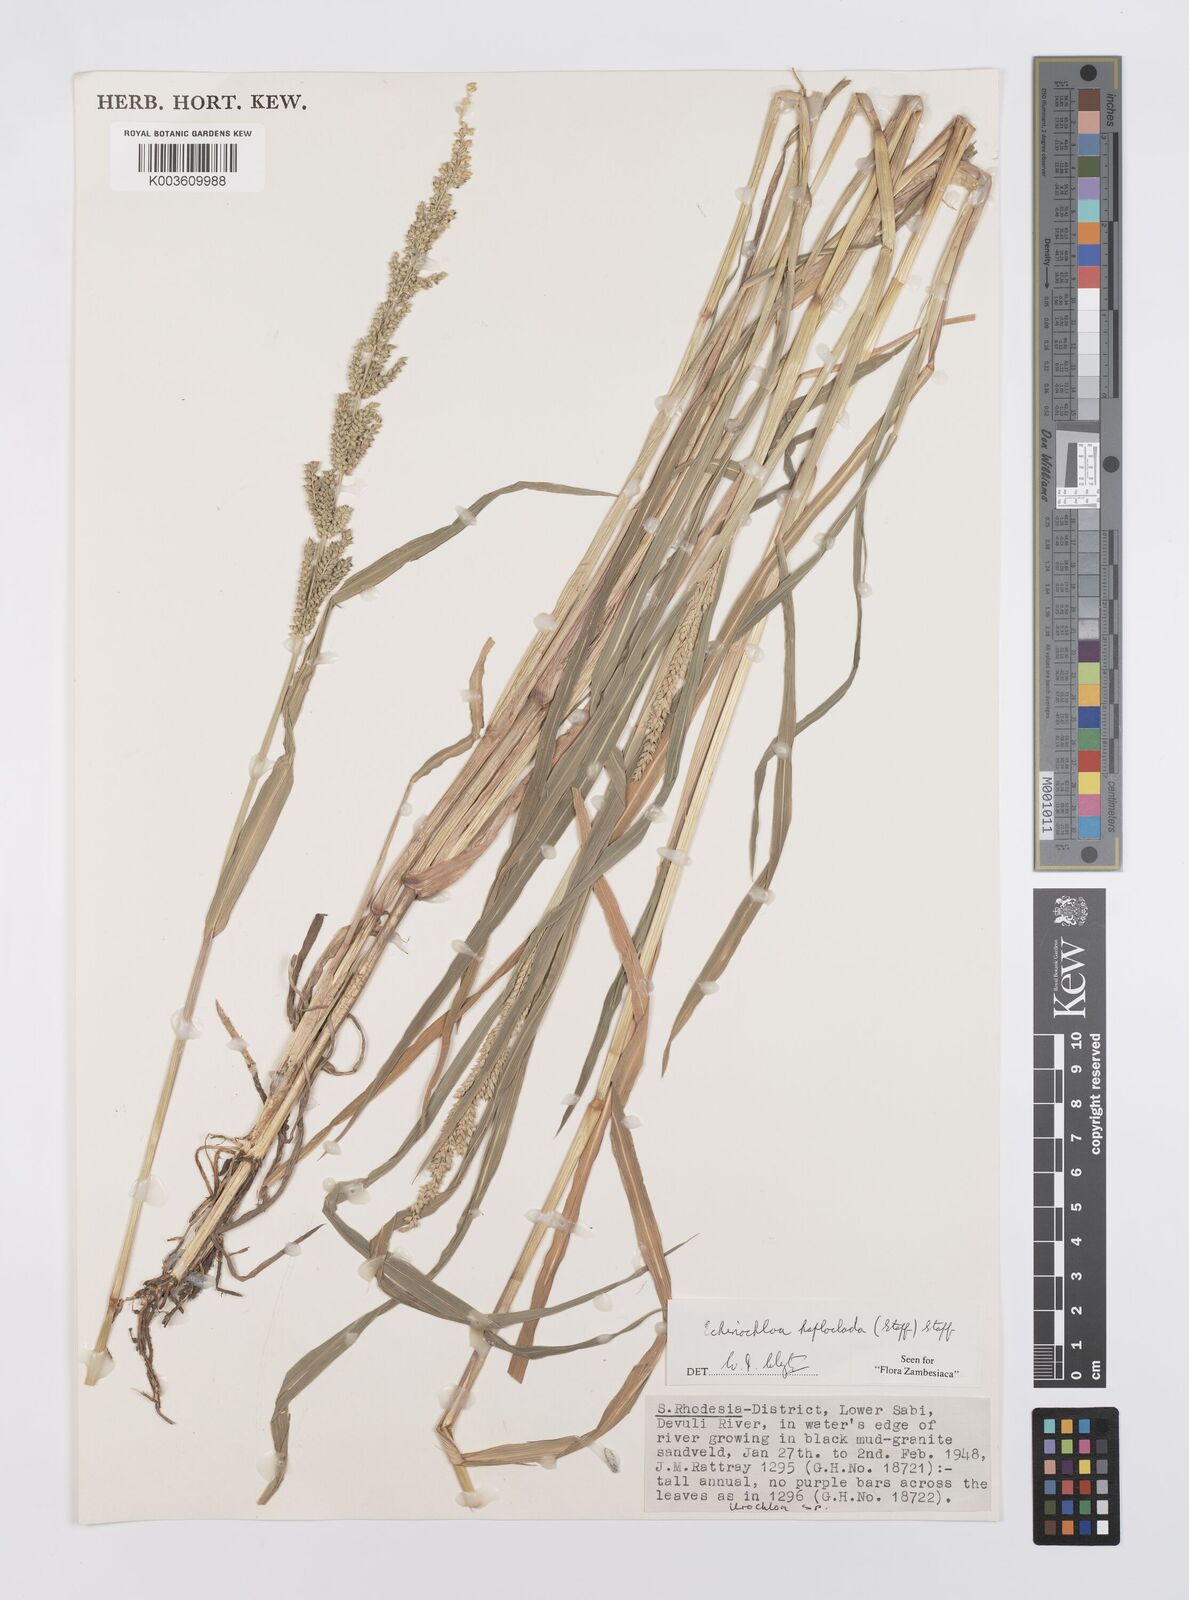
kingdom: Plantae
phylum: Tracheophyta
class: Liliopsida
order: Poales
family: Poaceae
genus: Echinochloa
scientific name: Echinochloa haploclada
